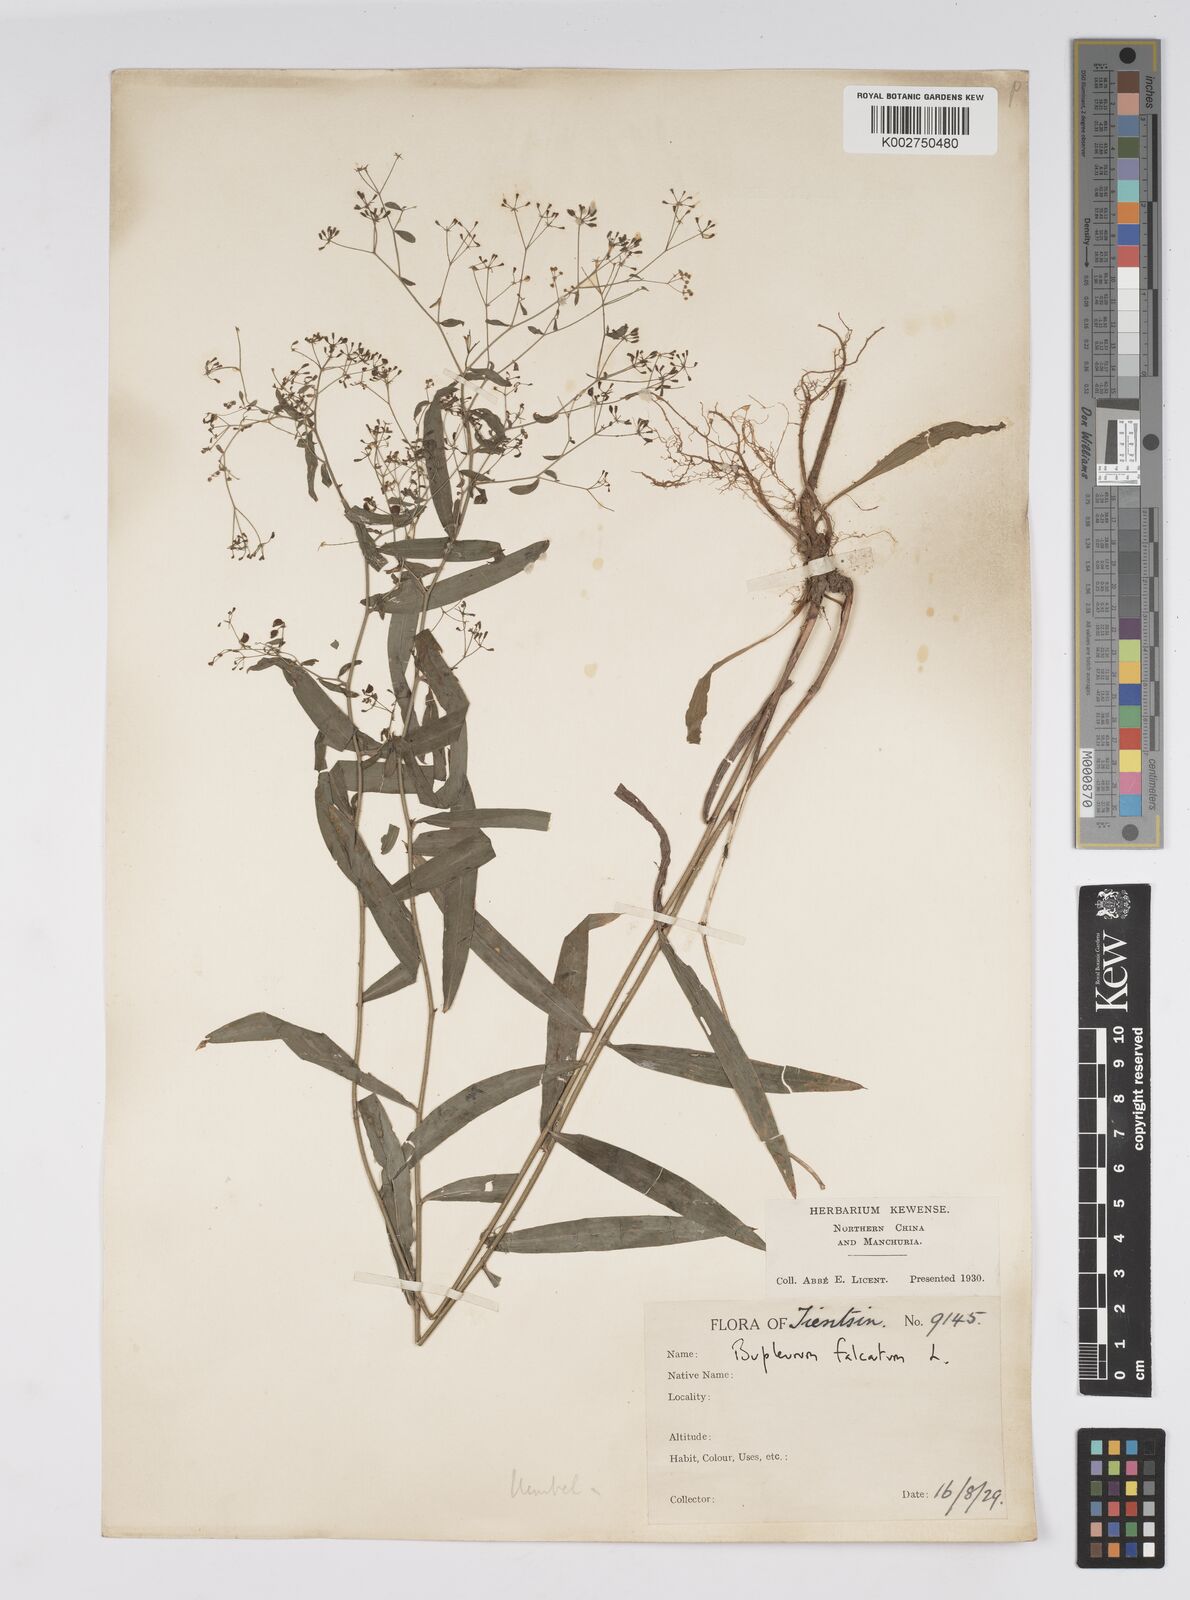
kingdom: Plantae
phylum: Tracheophyta
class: Magnoliopsida
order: Apiales
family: Apiaceae
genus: Bupleurum
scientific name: Bupleurum krylovianum
